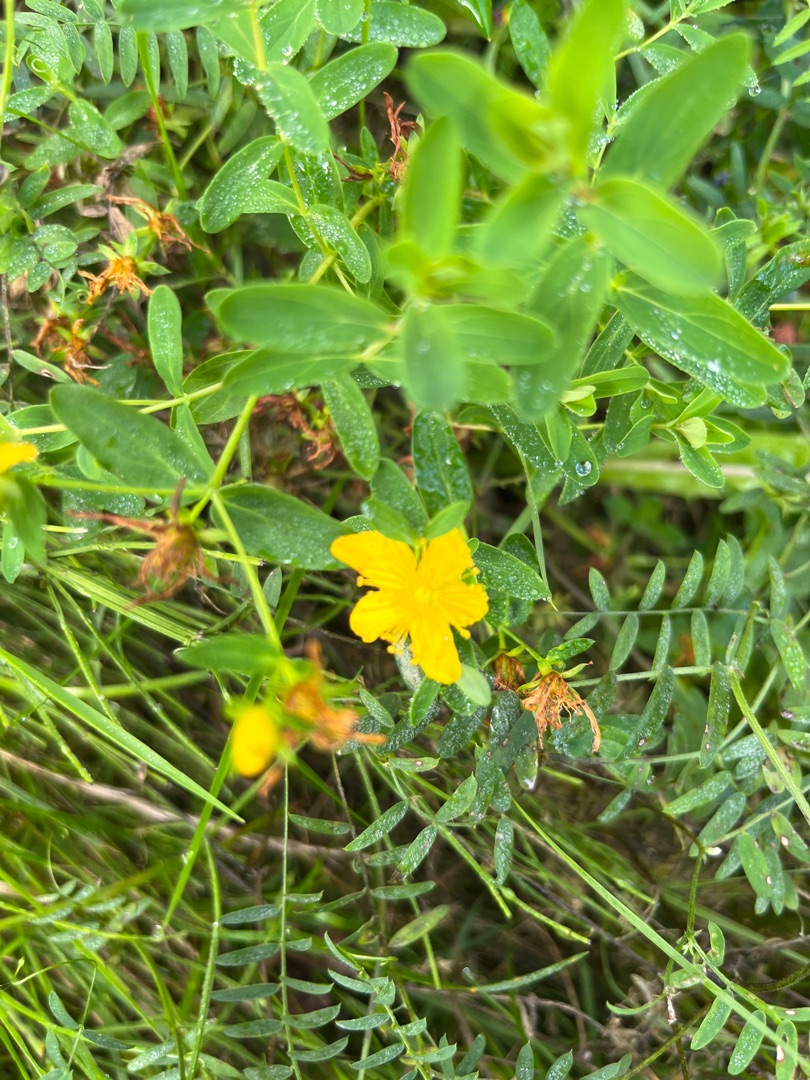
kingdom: Plantae
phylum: Tracheophyta
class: Magnoliopsida
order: Malpighiales
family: Hypericaceae
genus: Hypericum
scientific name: Hypericum perforatum
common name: Prikbladet perikon
